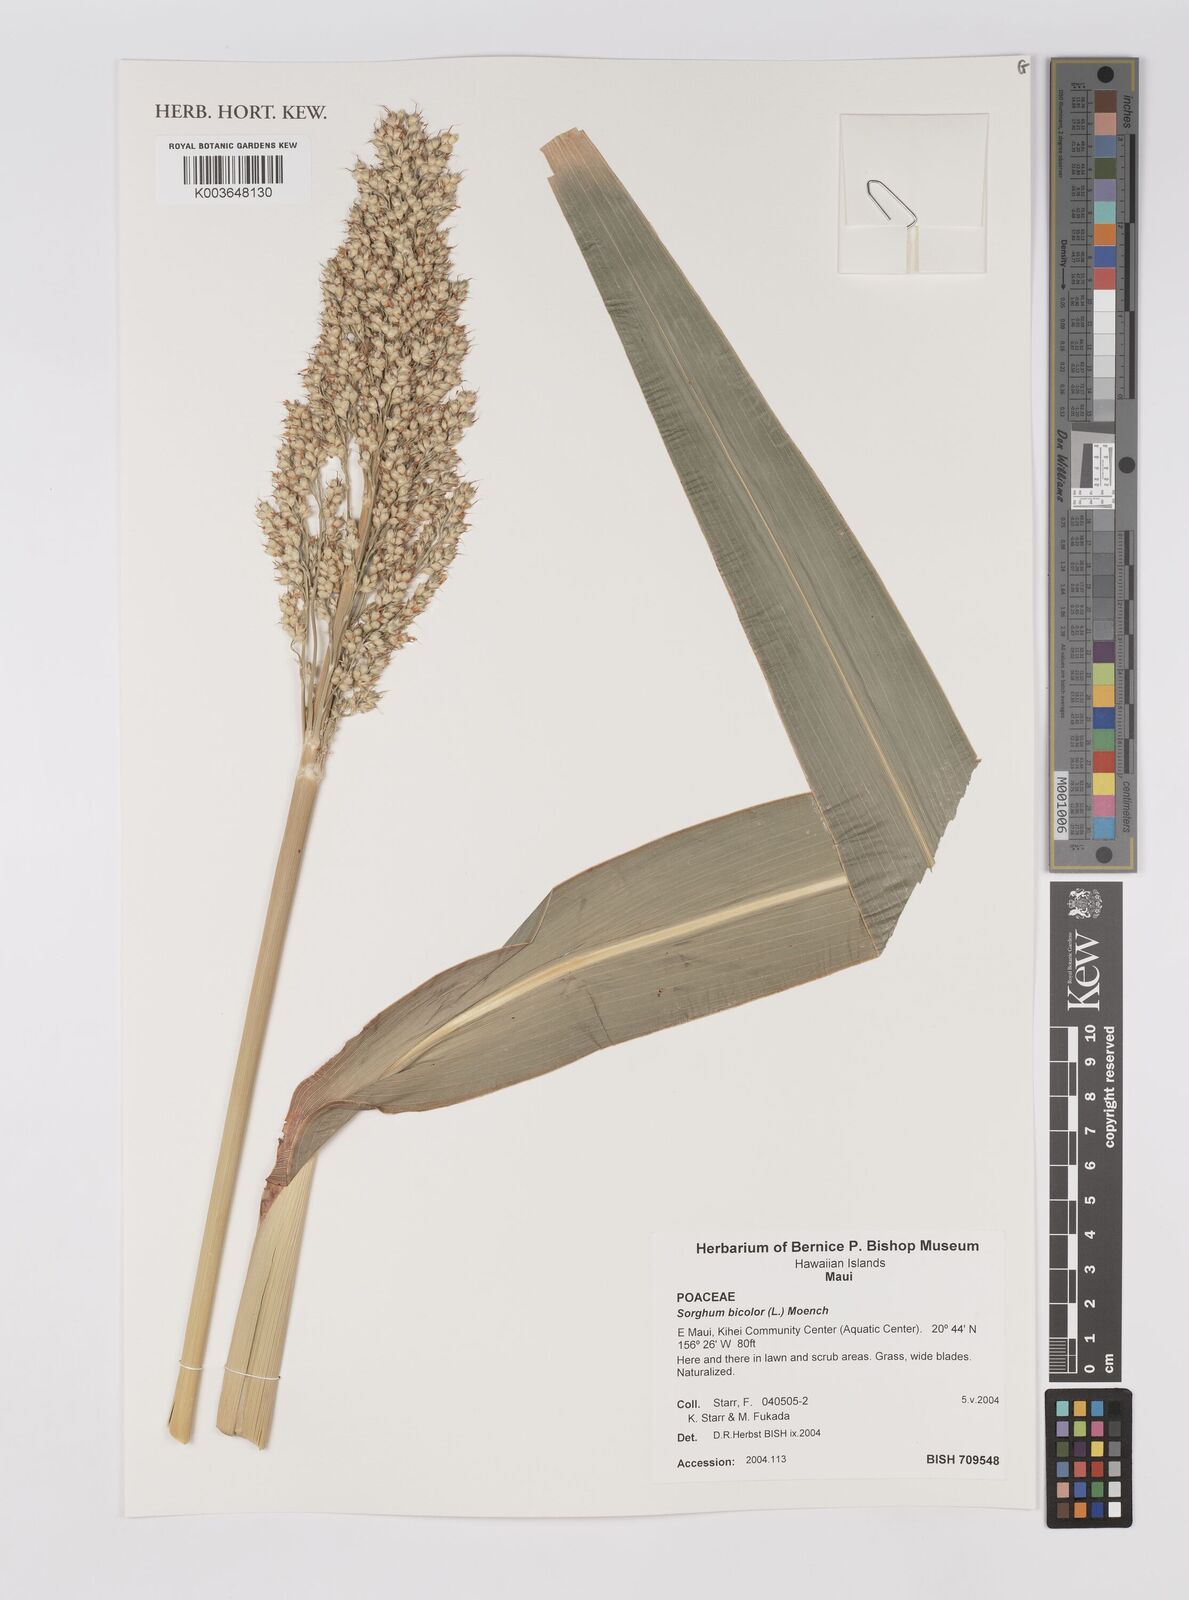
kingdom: Plantae
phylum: Tracheophyta
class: Liliopsida
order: Poales
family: Poaceae
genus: Sorghum
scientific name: Sorghum bicolor
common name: Sorghum
